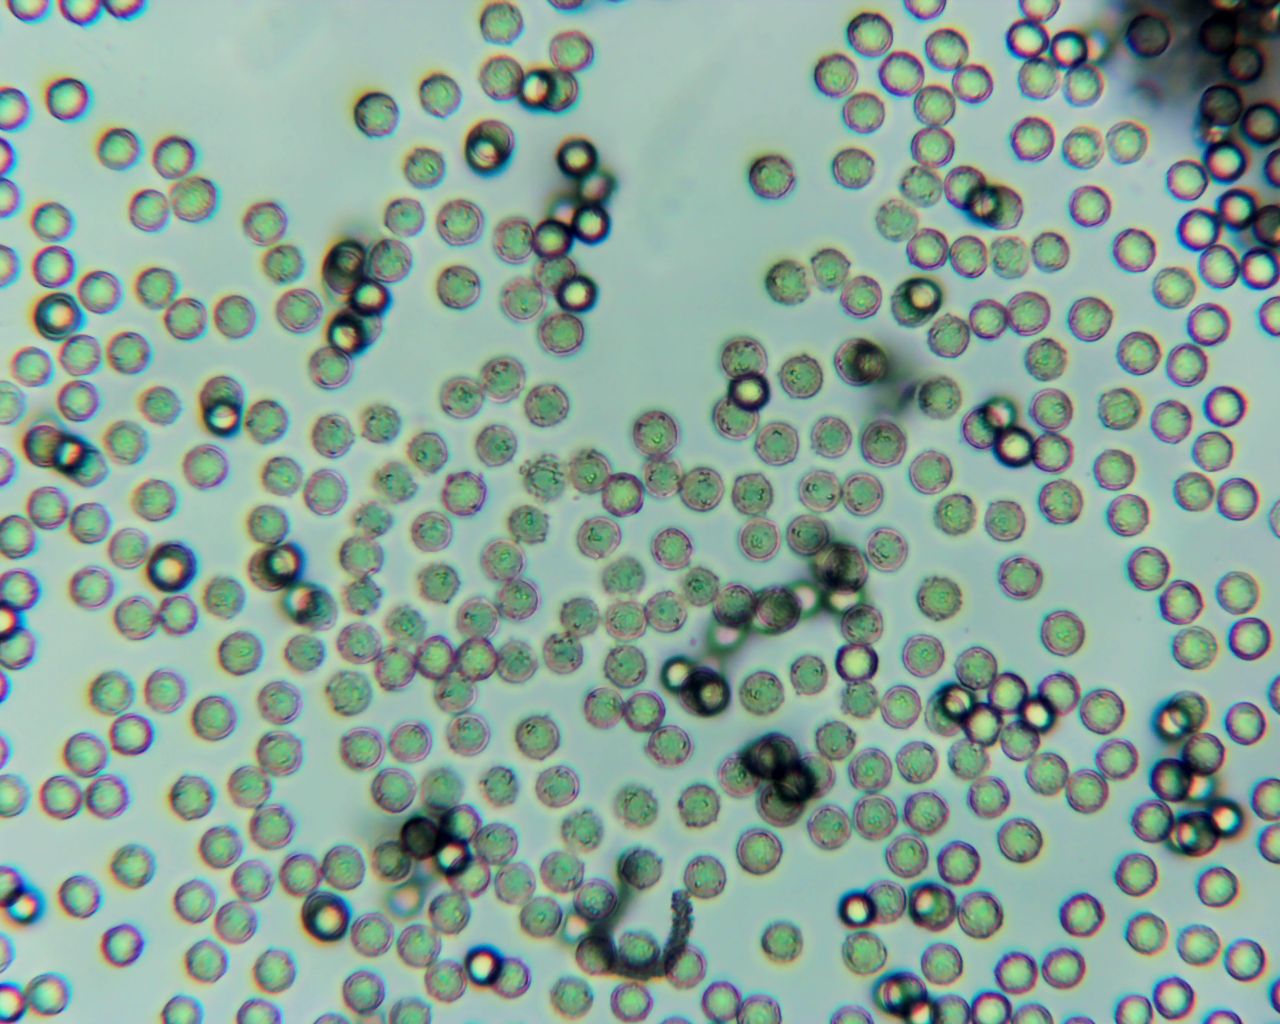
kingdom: Protozoa
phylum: Amoebozoa
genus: Arcyria
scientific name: Arcyria
